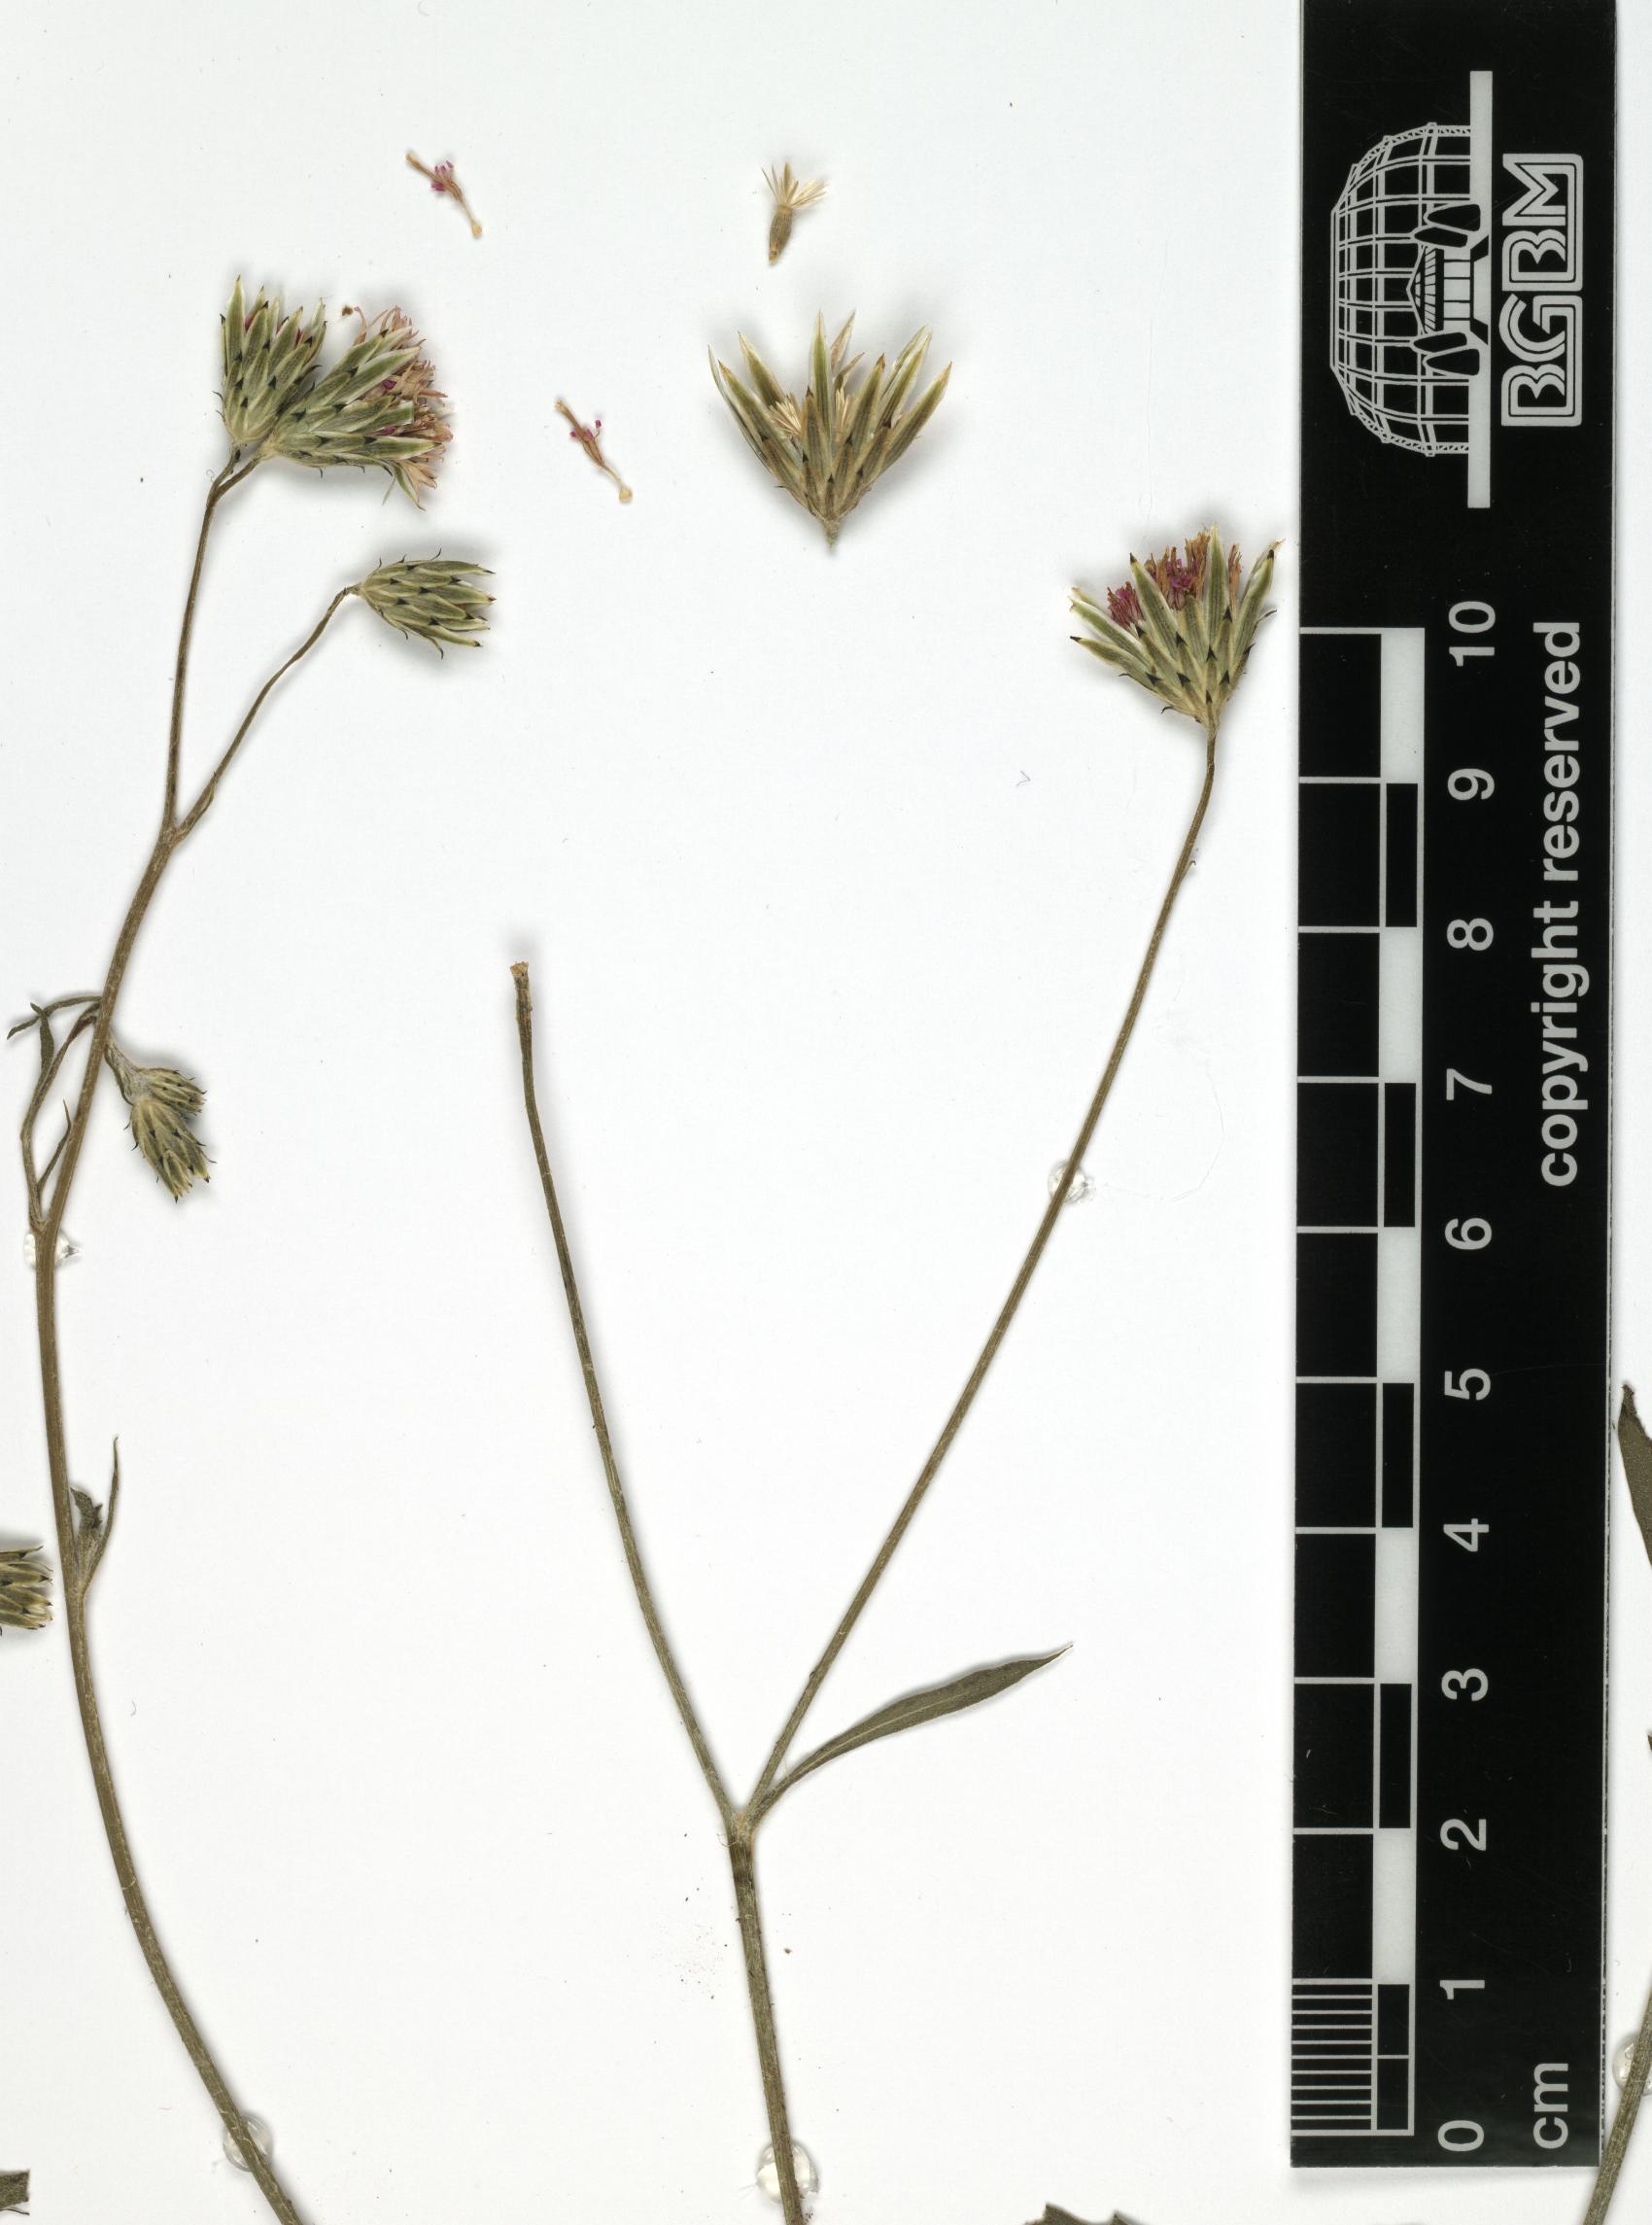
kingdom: Plantae
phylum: Tracheophyta
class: Magnoliopsida
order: Asterales
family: Asteraceae
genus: Volutaria
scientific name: Volutaria albicaulis
